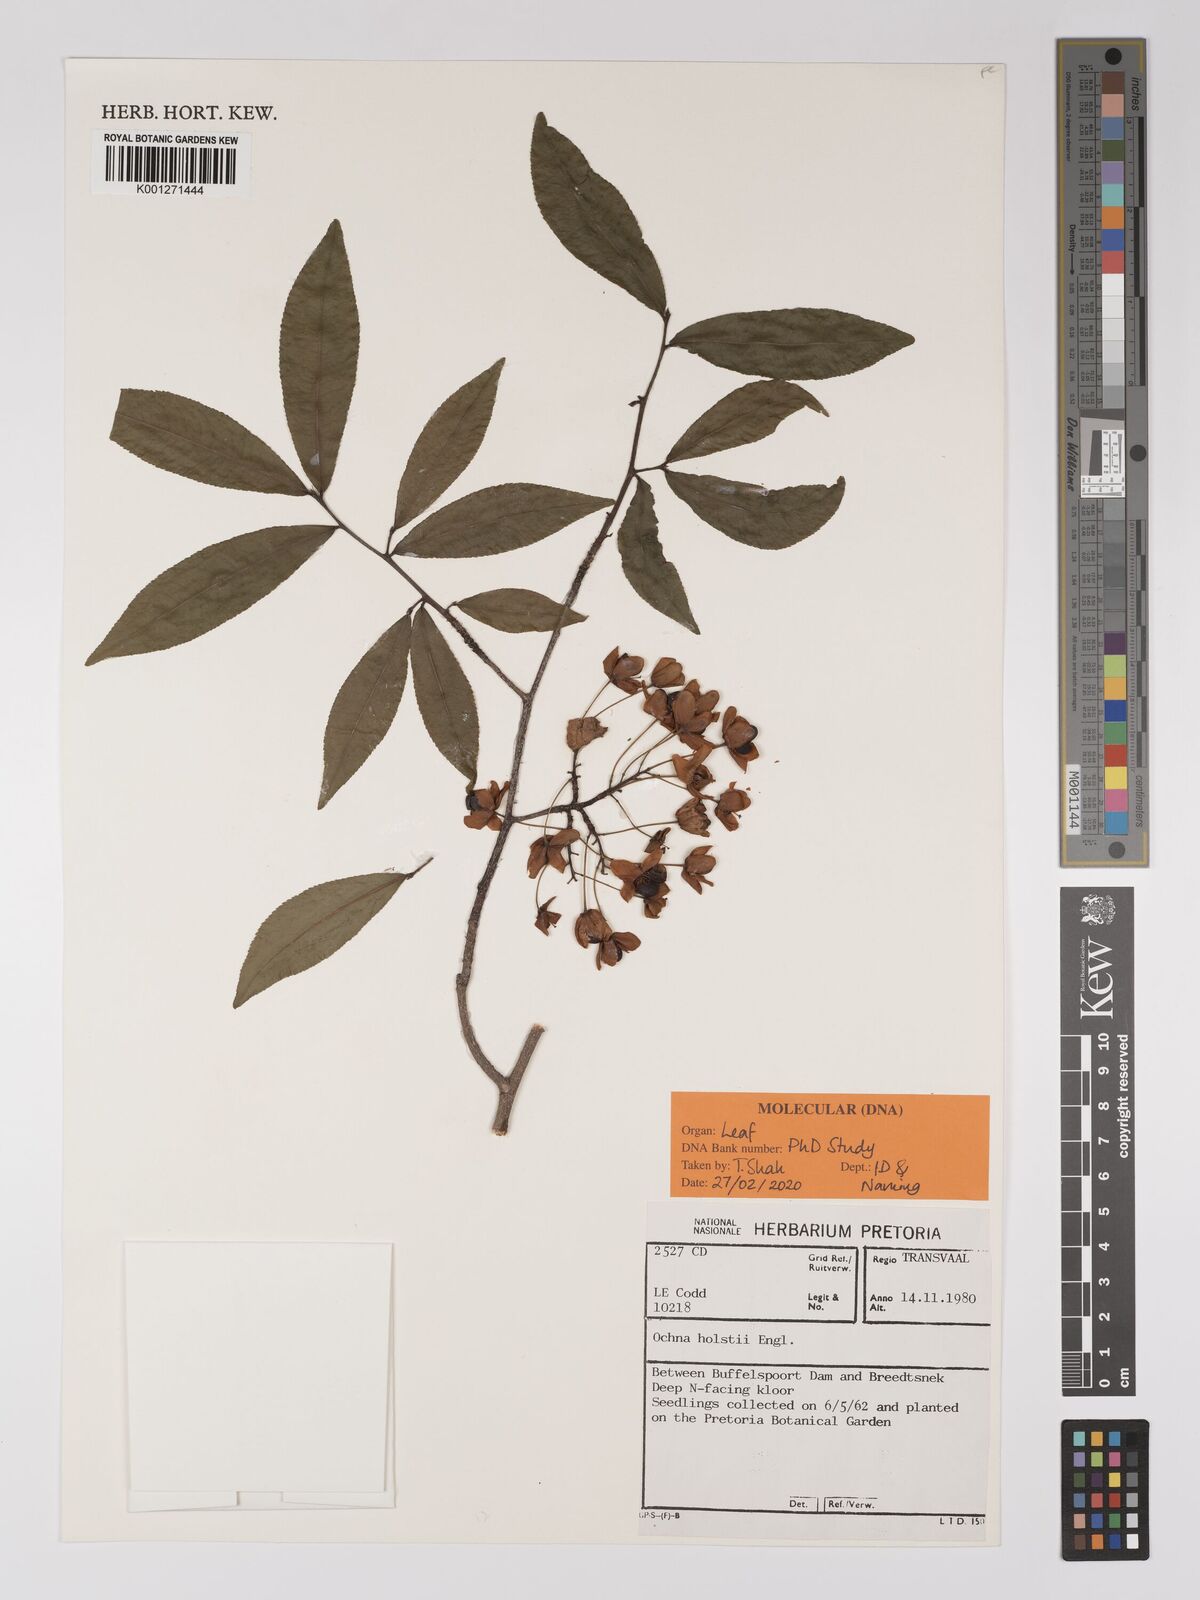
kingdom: Plantae
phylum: Tracheophyta
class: Magnoliopsida
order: Malpighiales
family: Ochnaceae
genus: Ochna
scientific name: Ochna holstii
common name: Red ironwood
